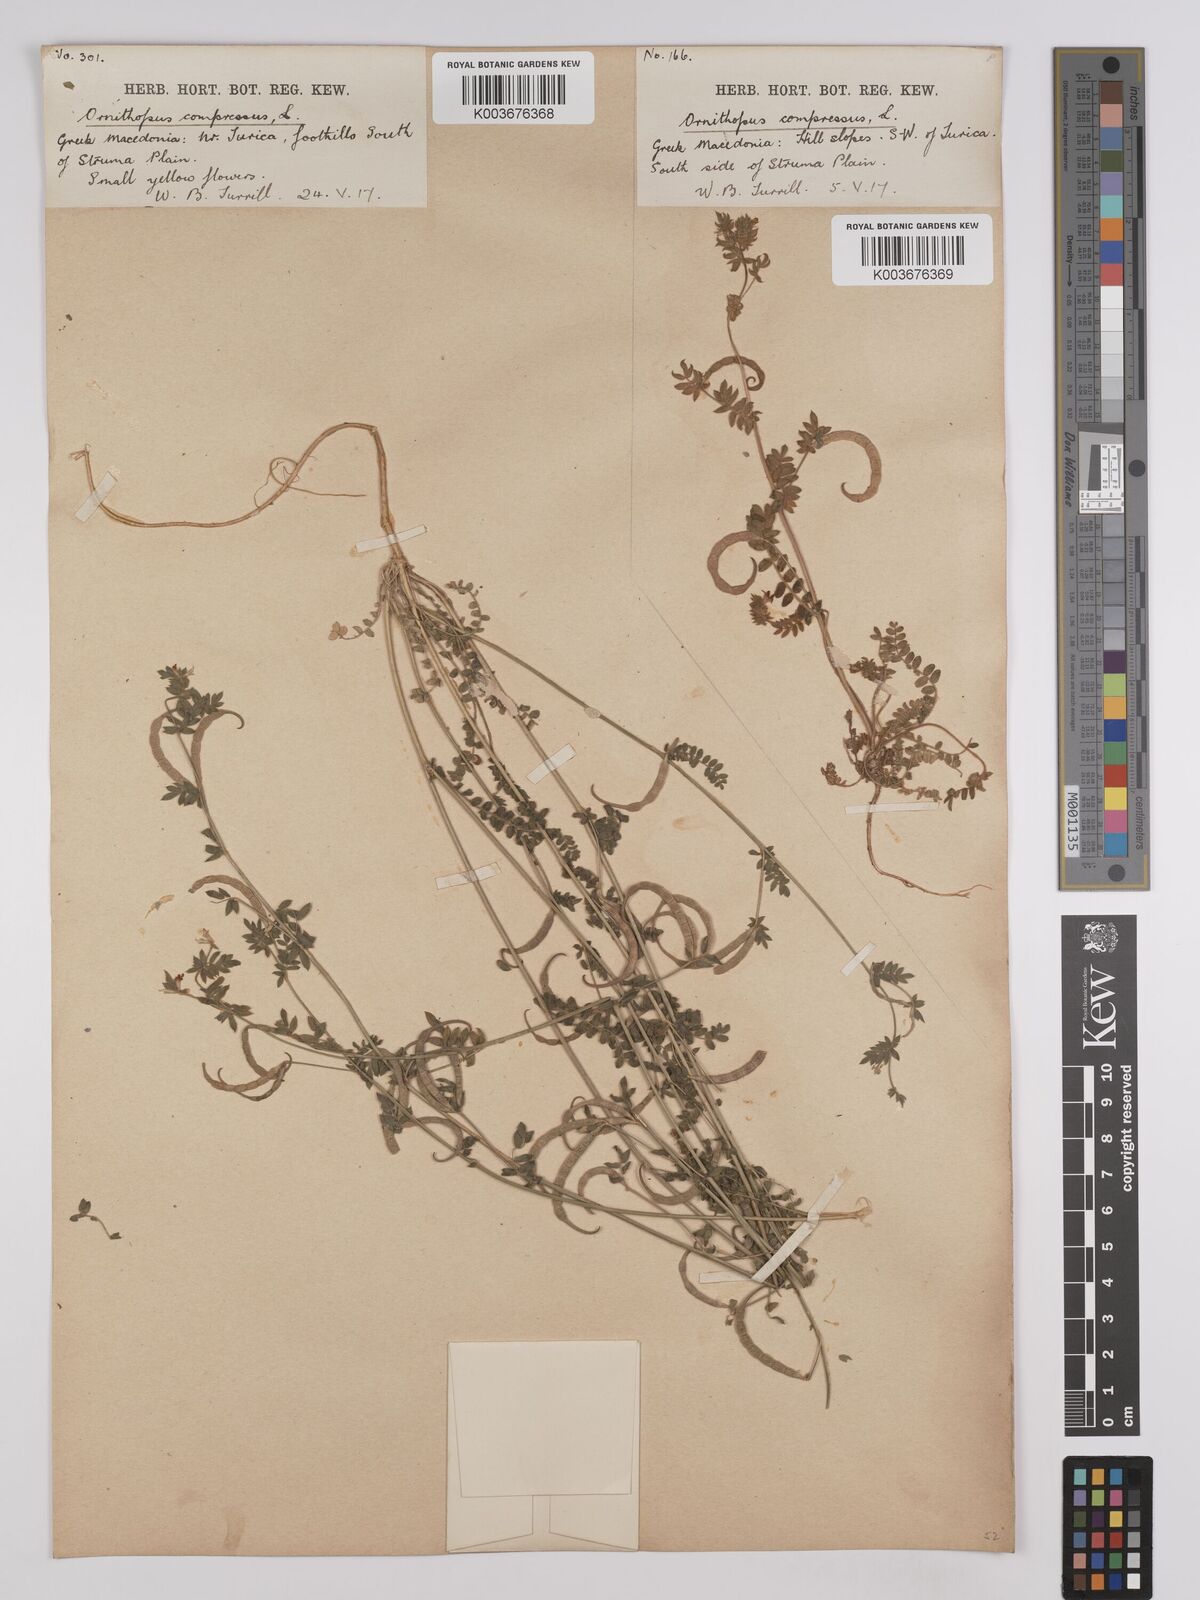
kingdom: Plantae
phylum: Tracheophyta
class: Magnoliopsida
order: Fabales
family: Fabaceae
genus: Ornithopus
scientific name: Ornithopus compressus
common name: Yellow serradella
